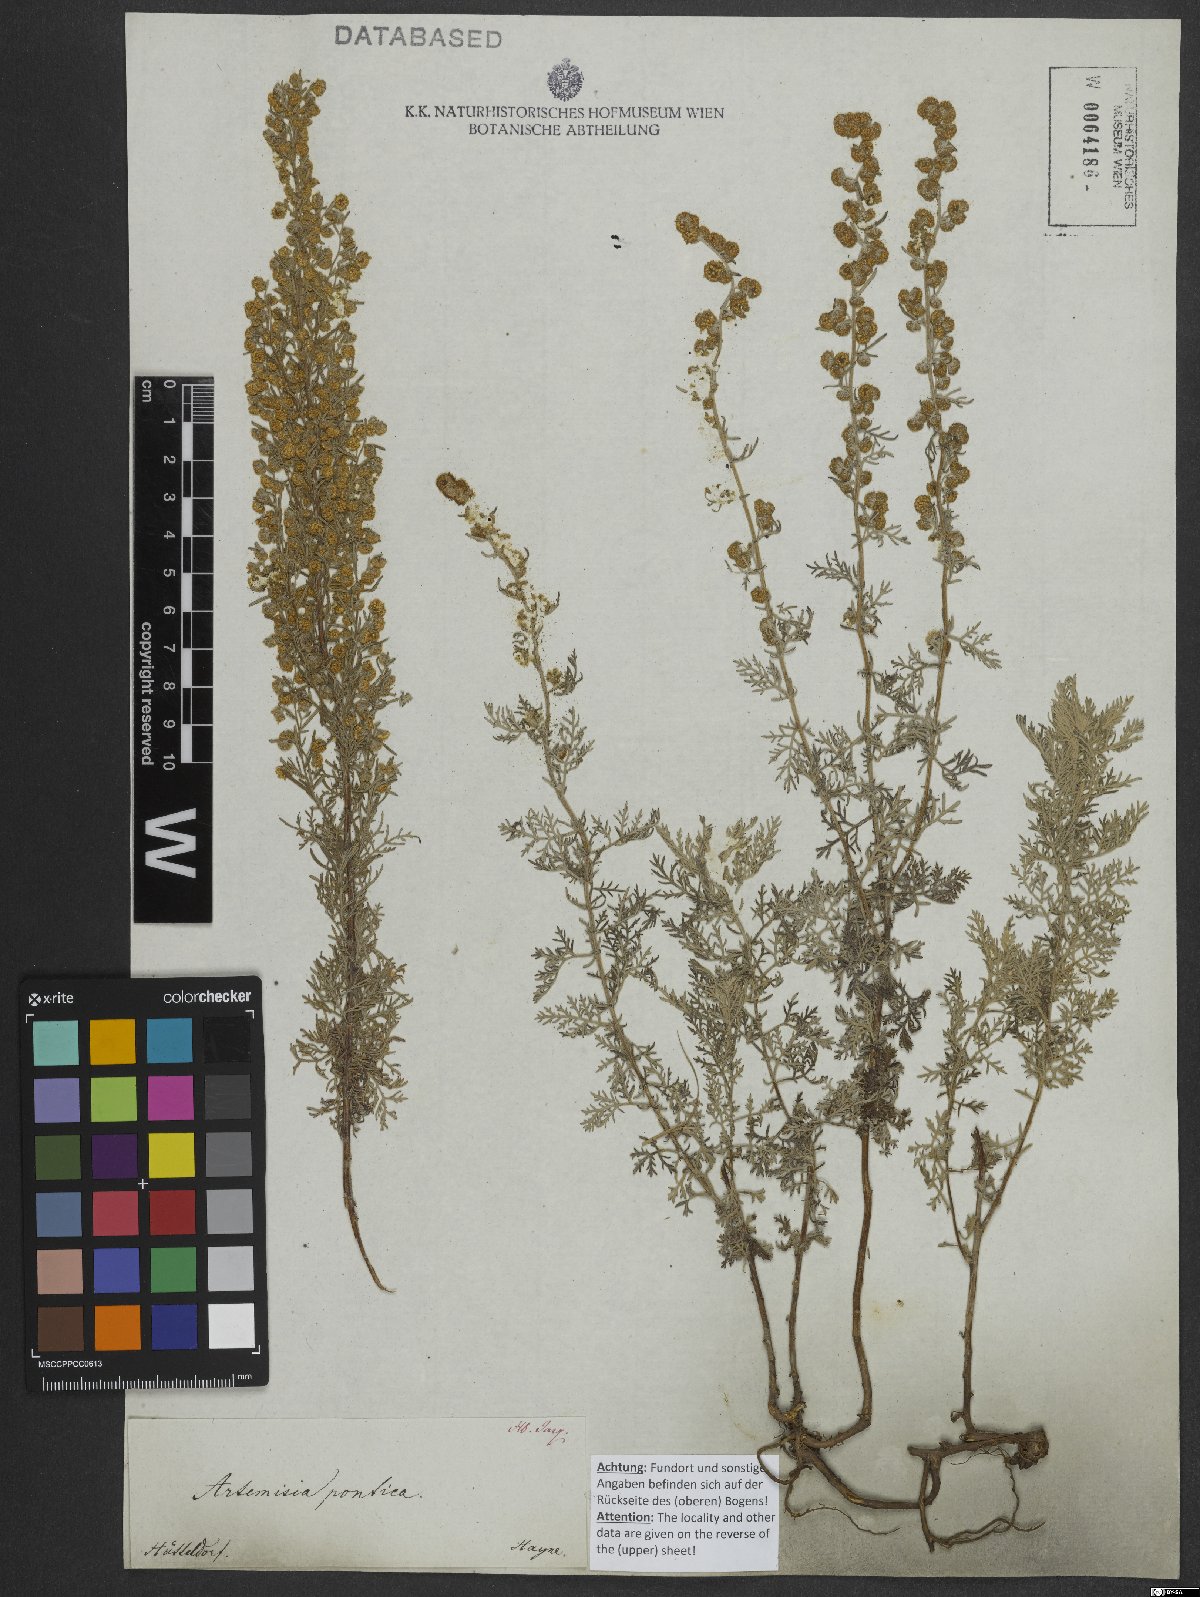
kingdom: Plantae
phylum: Tracheophyta
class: Magnoliopsida
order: Asterales
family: Asteraceae
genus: Artemisia
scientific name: Artemisia pontica
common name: Roman wormwood
